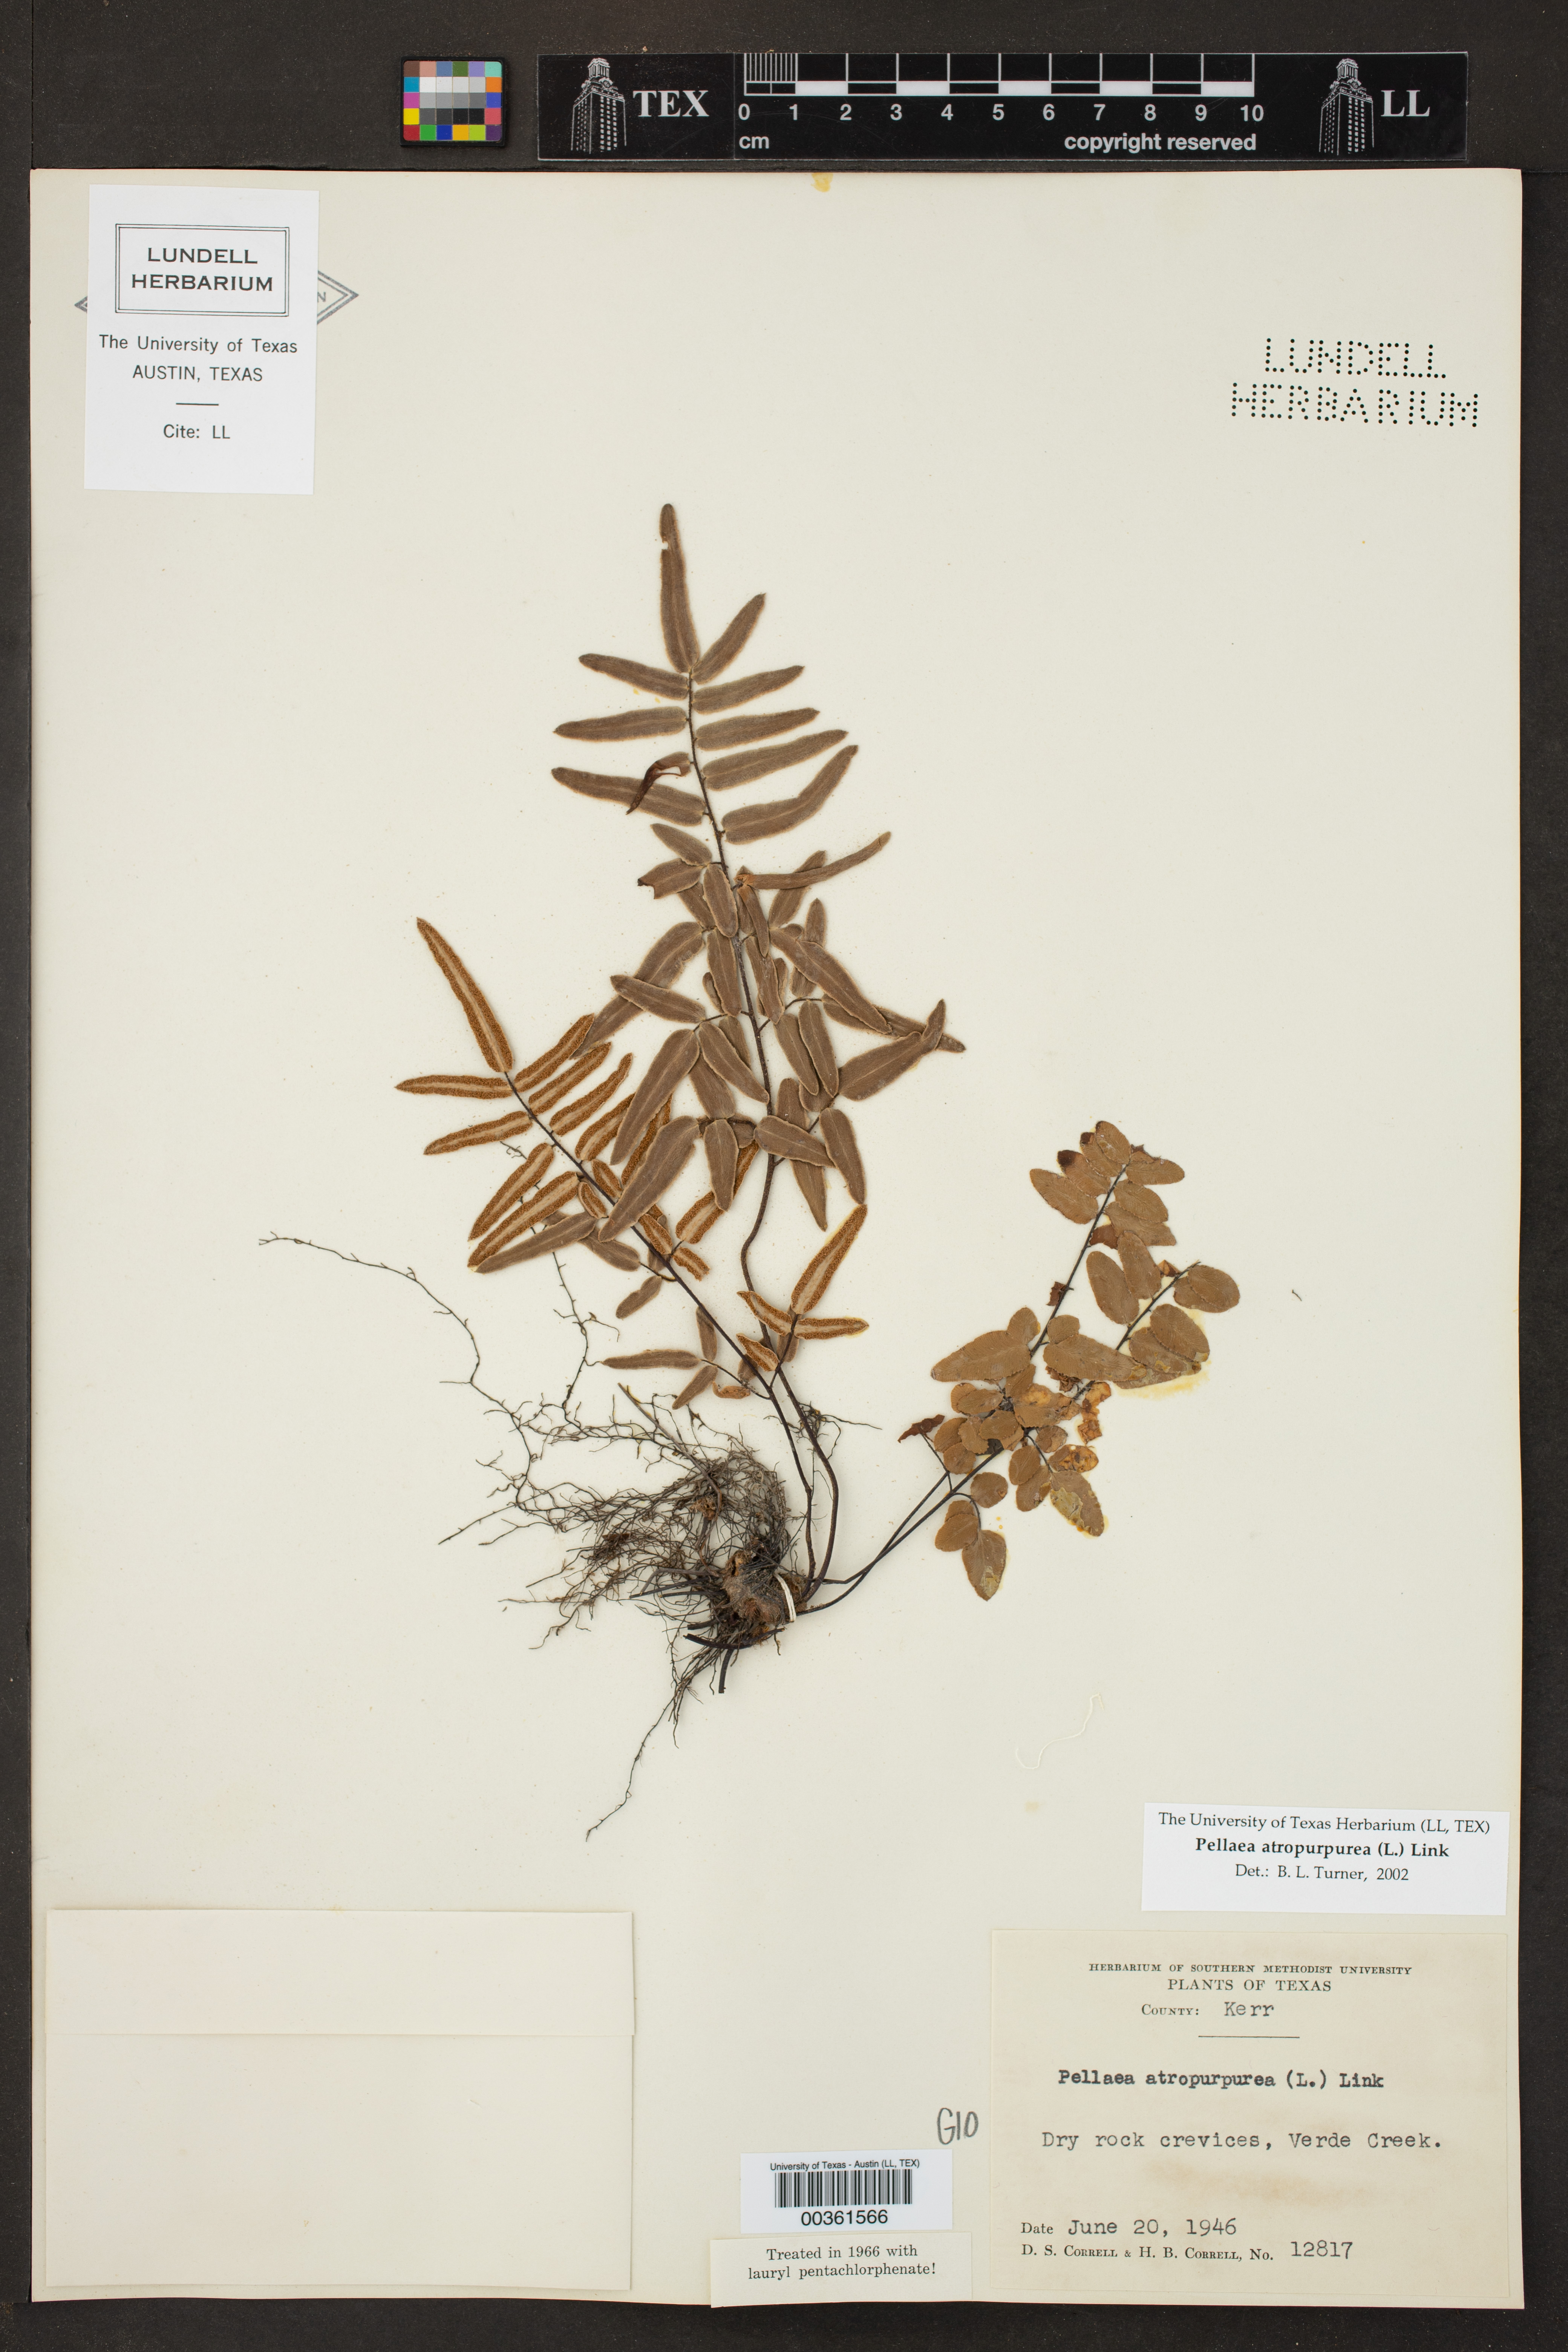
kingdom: Plantae
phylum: Tracheophyta
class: Polypodiopsida
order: Polypodiales
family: Pteridaceae
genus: Pellaea
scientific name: Pellaea atropurpurea
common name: Hairy cliffbrake
